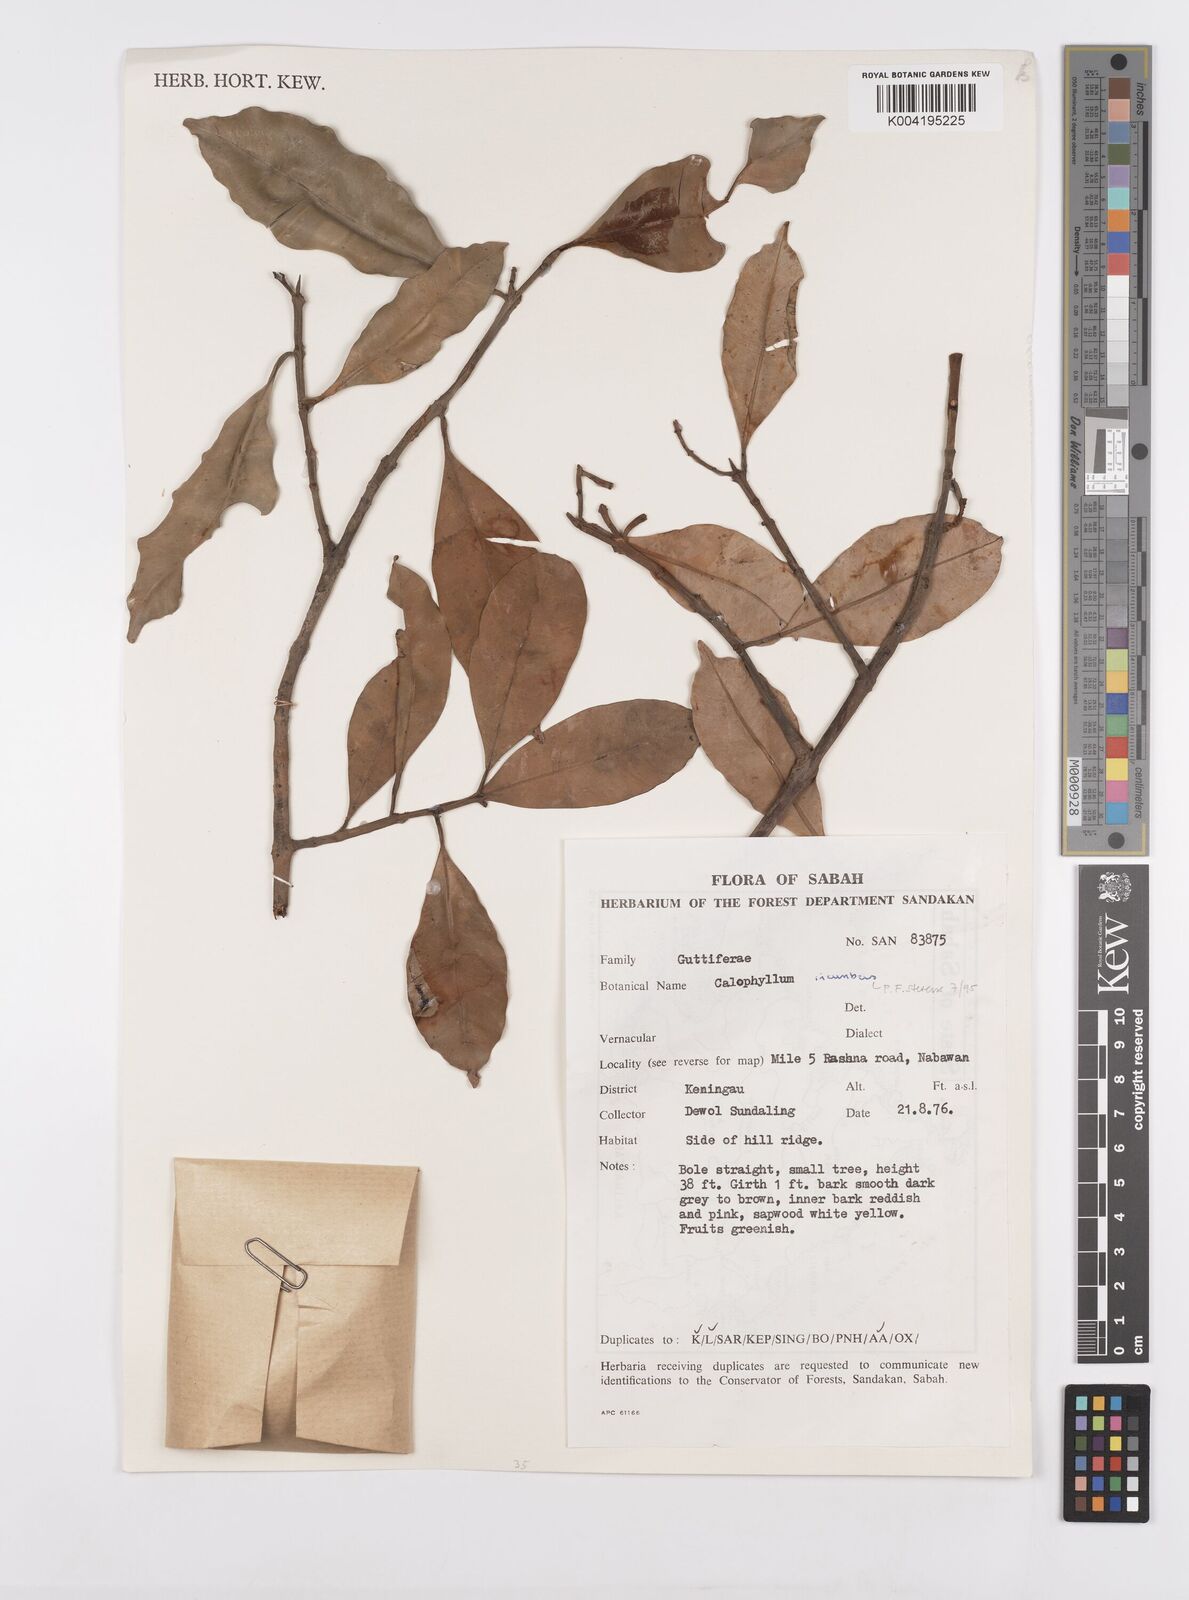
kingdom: Plantae
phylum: Tracheophyta
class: Magnoliopsida
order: Malpighiales
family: Calophyllaceae
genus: Calophyllum
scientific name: Calophyllum incumbens
